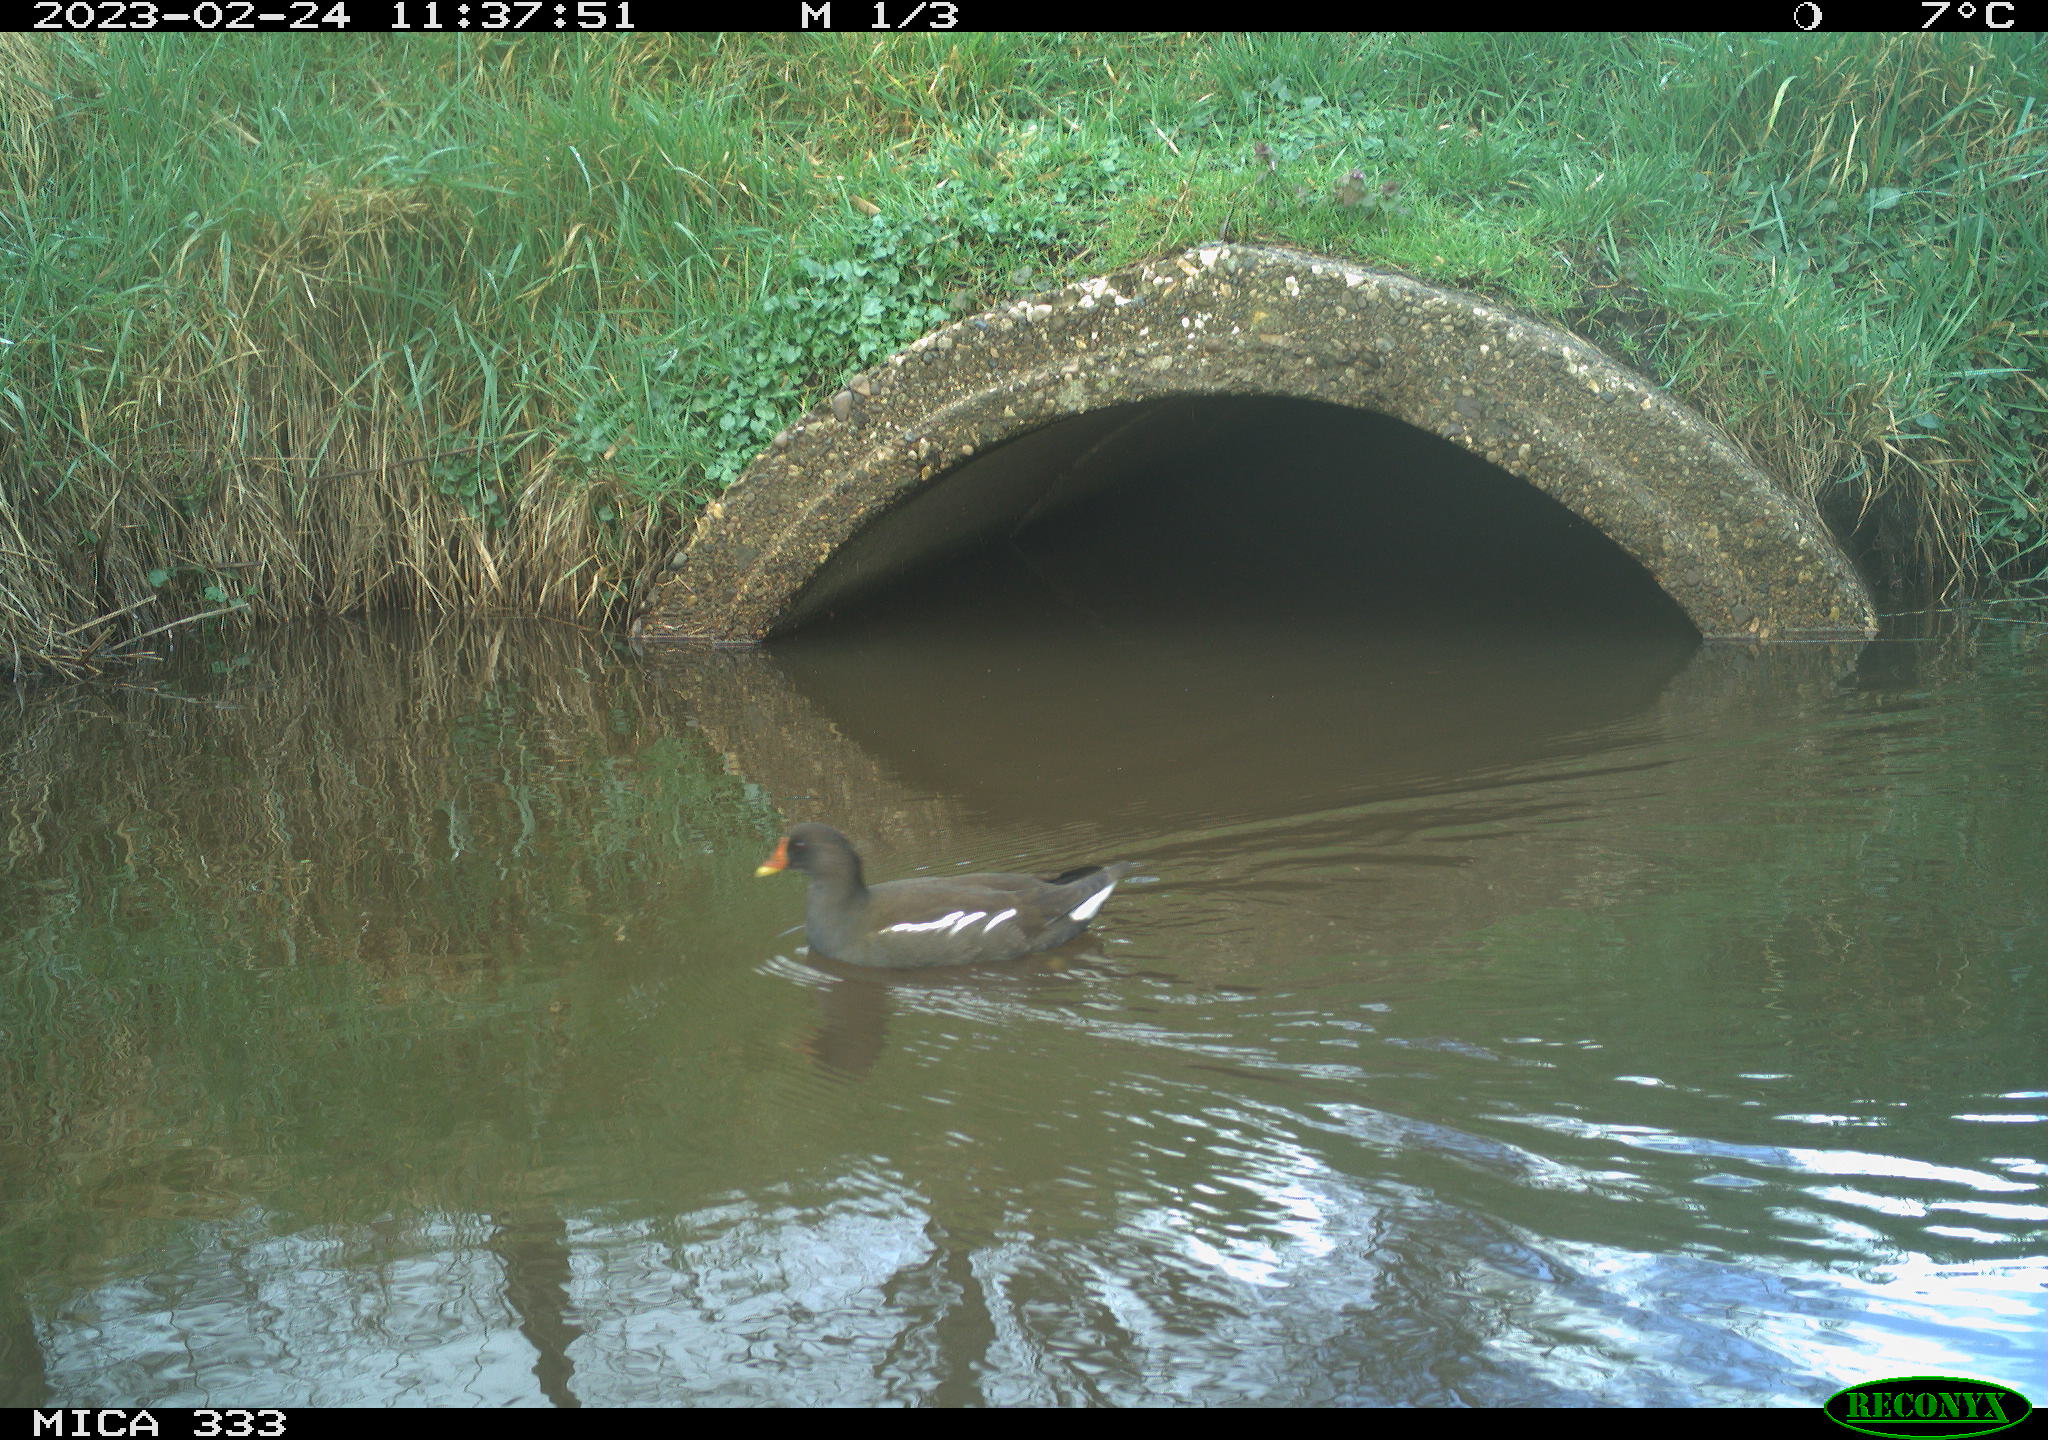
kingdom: Animalia
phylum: Chordata
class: Aves
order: Gruiformes
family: Rallidae
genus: Gallinula
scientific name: Gallinula chloropus
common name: Common moorhen
